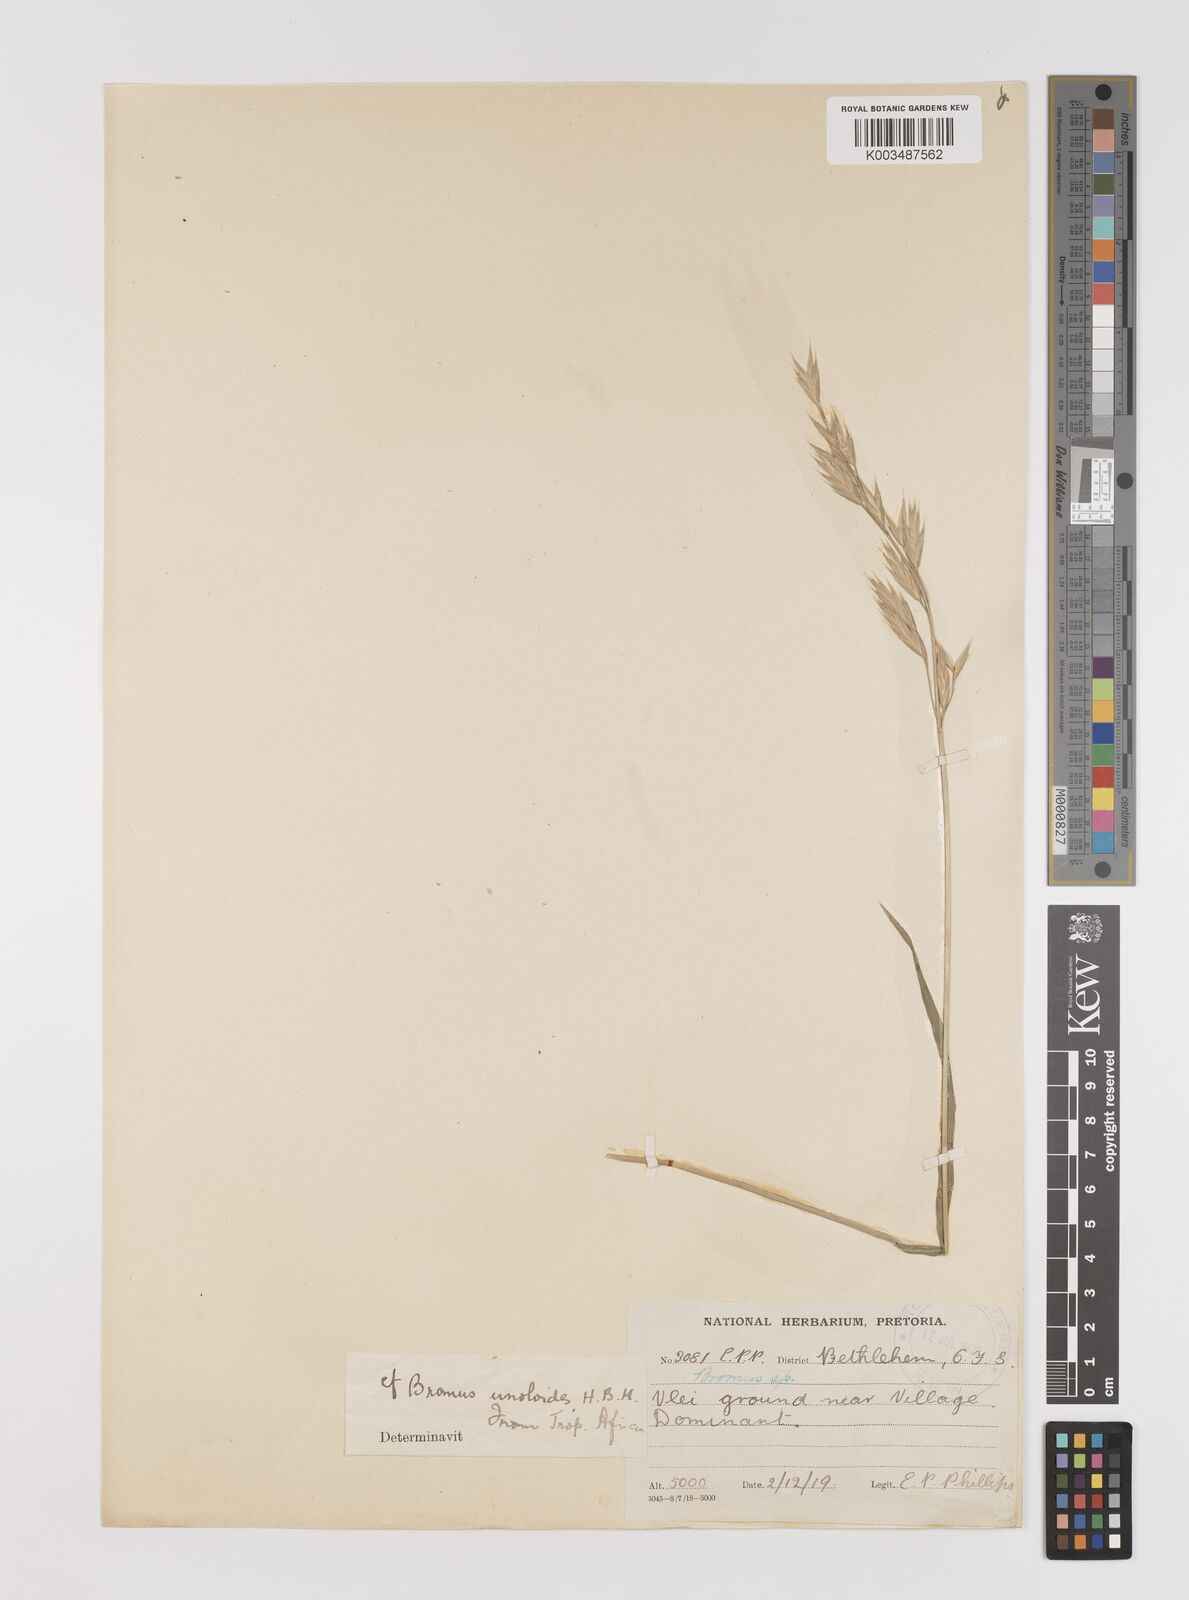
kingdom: Plantae
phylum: Tracheophyta
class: Liliopsida
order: Poales
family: Poaceae
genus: Bromus
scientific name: Bromus catharticus
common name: Rescuegrass
